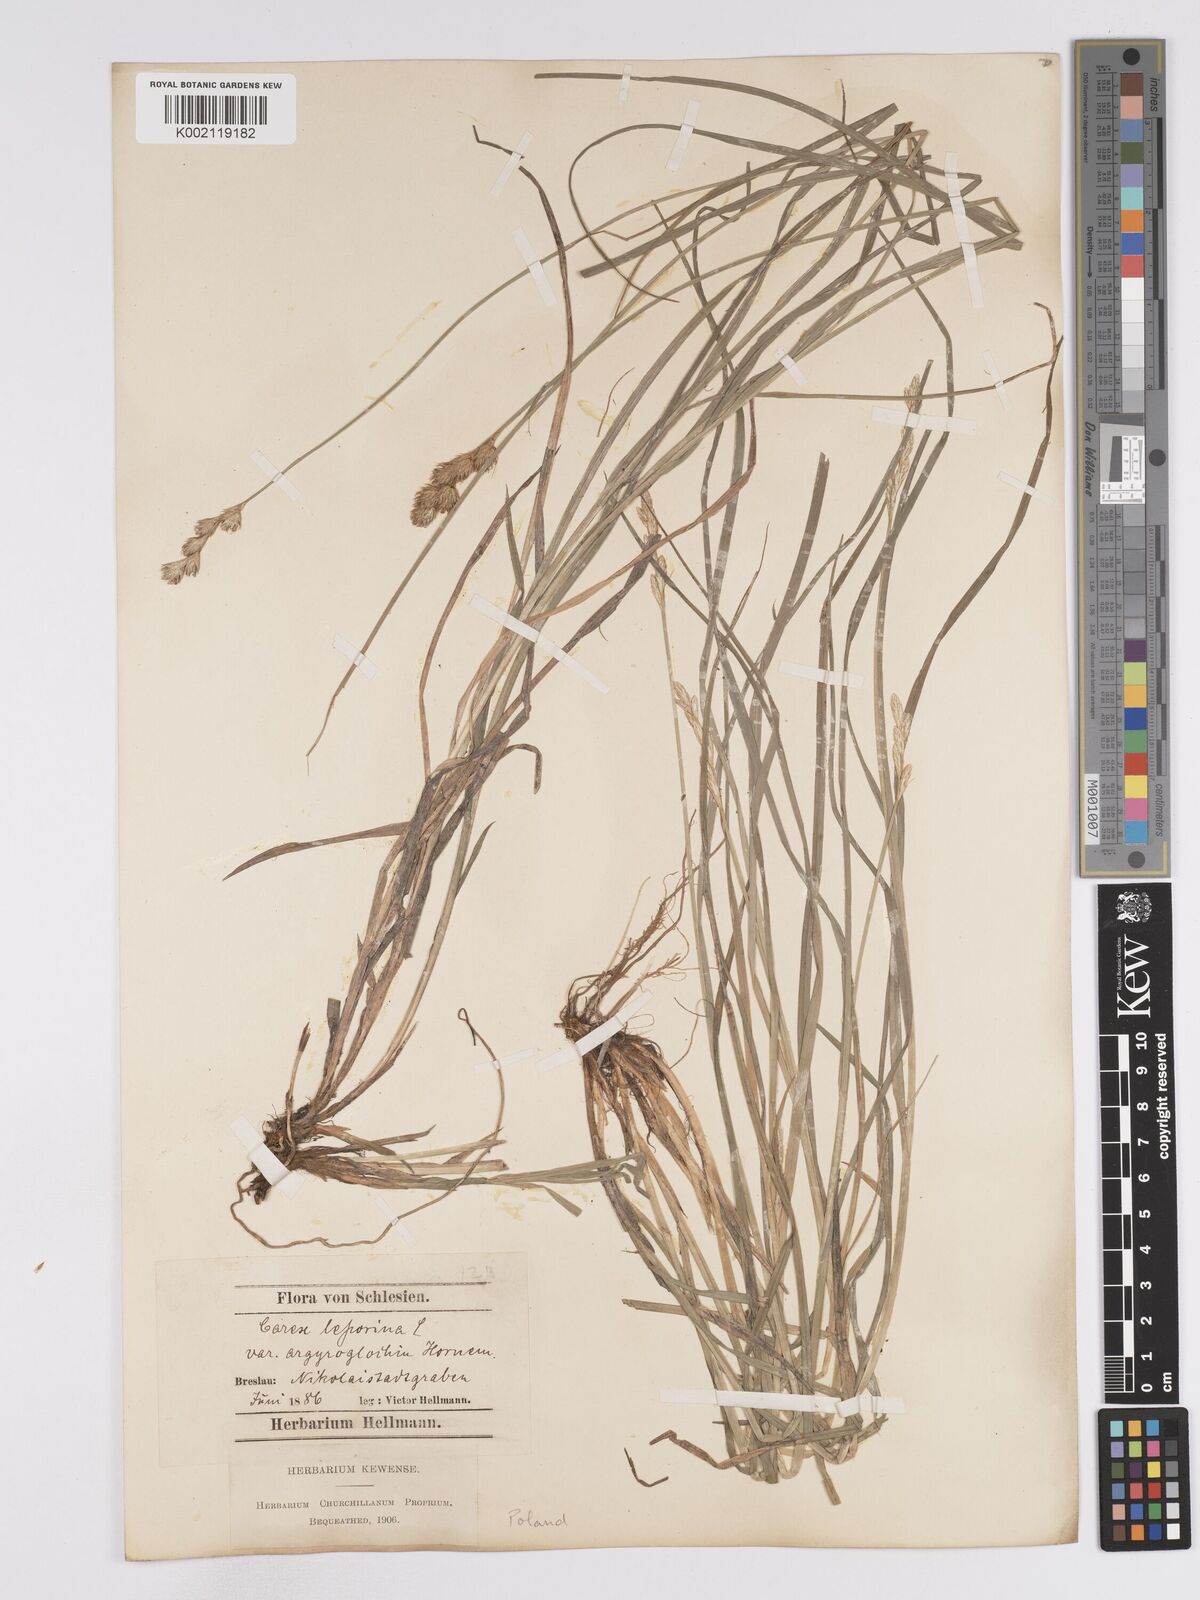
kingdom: Plantae
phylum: Tracheophyta
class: Liliopsida
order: Poales
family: Cyperaceae
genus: Carex
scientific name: Carex leporina
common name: Oval sedge
